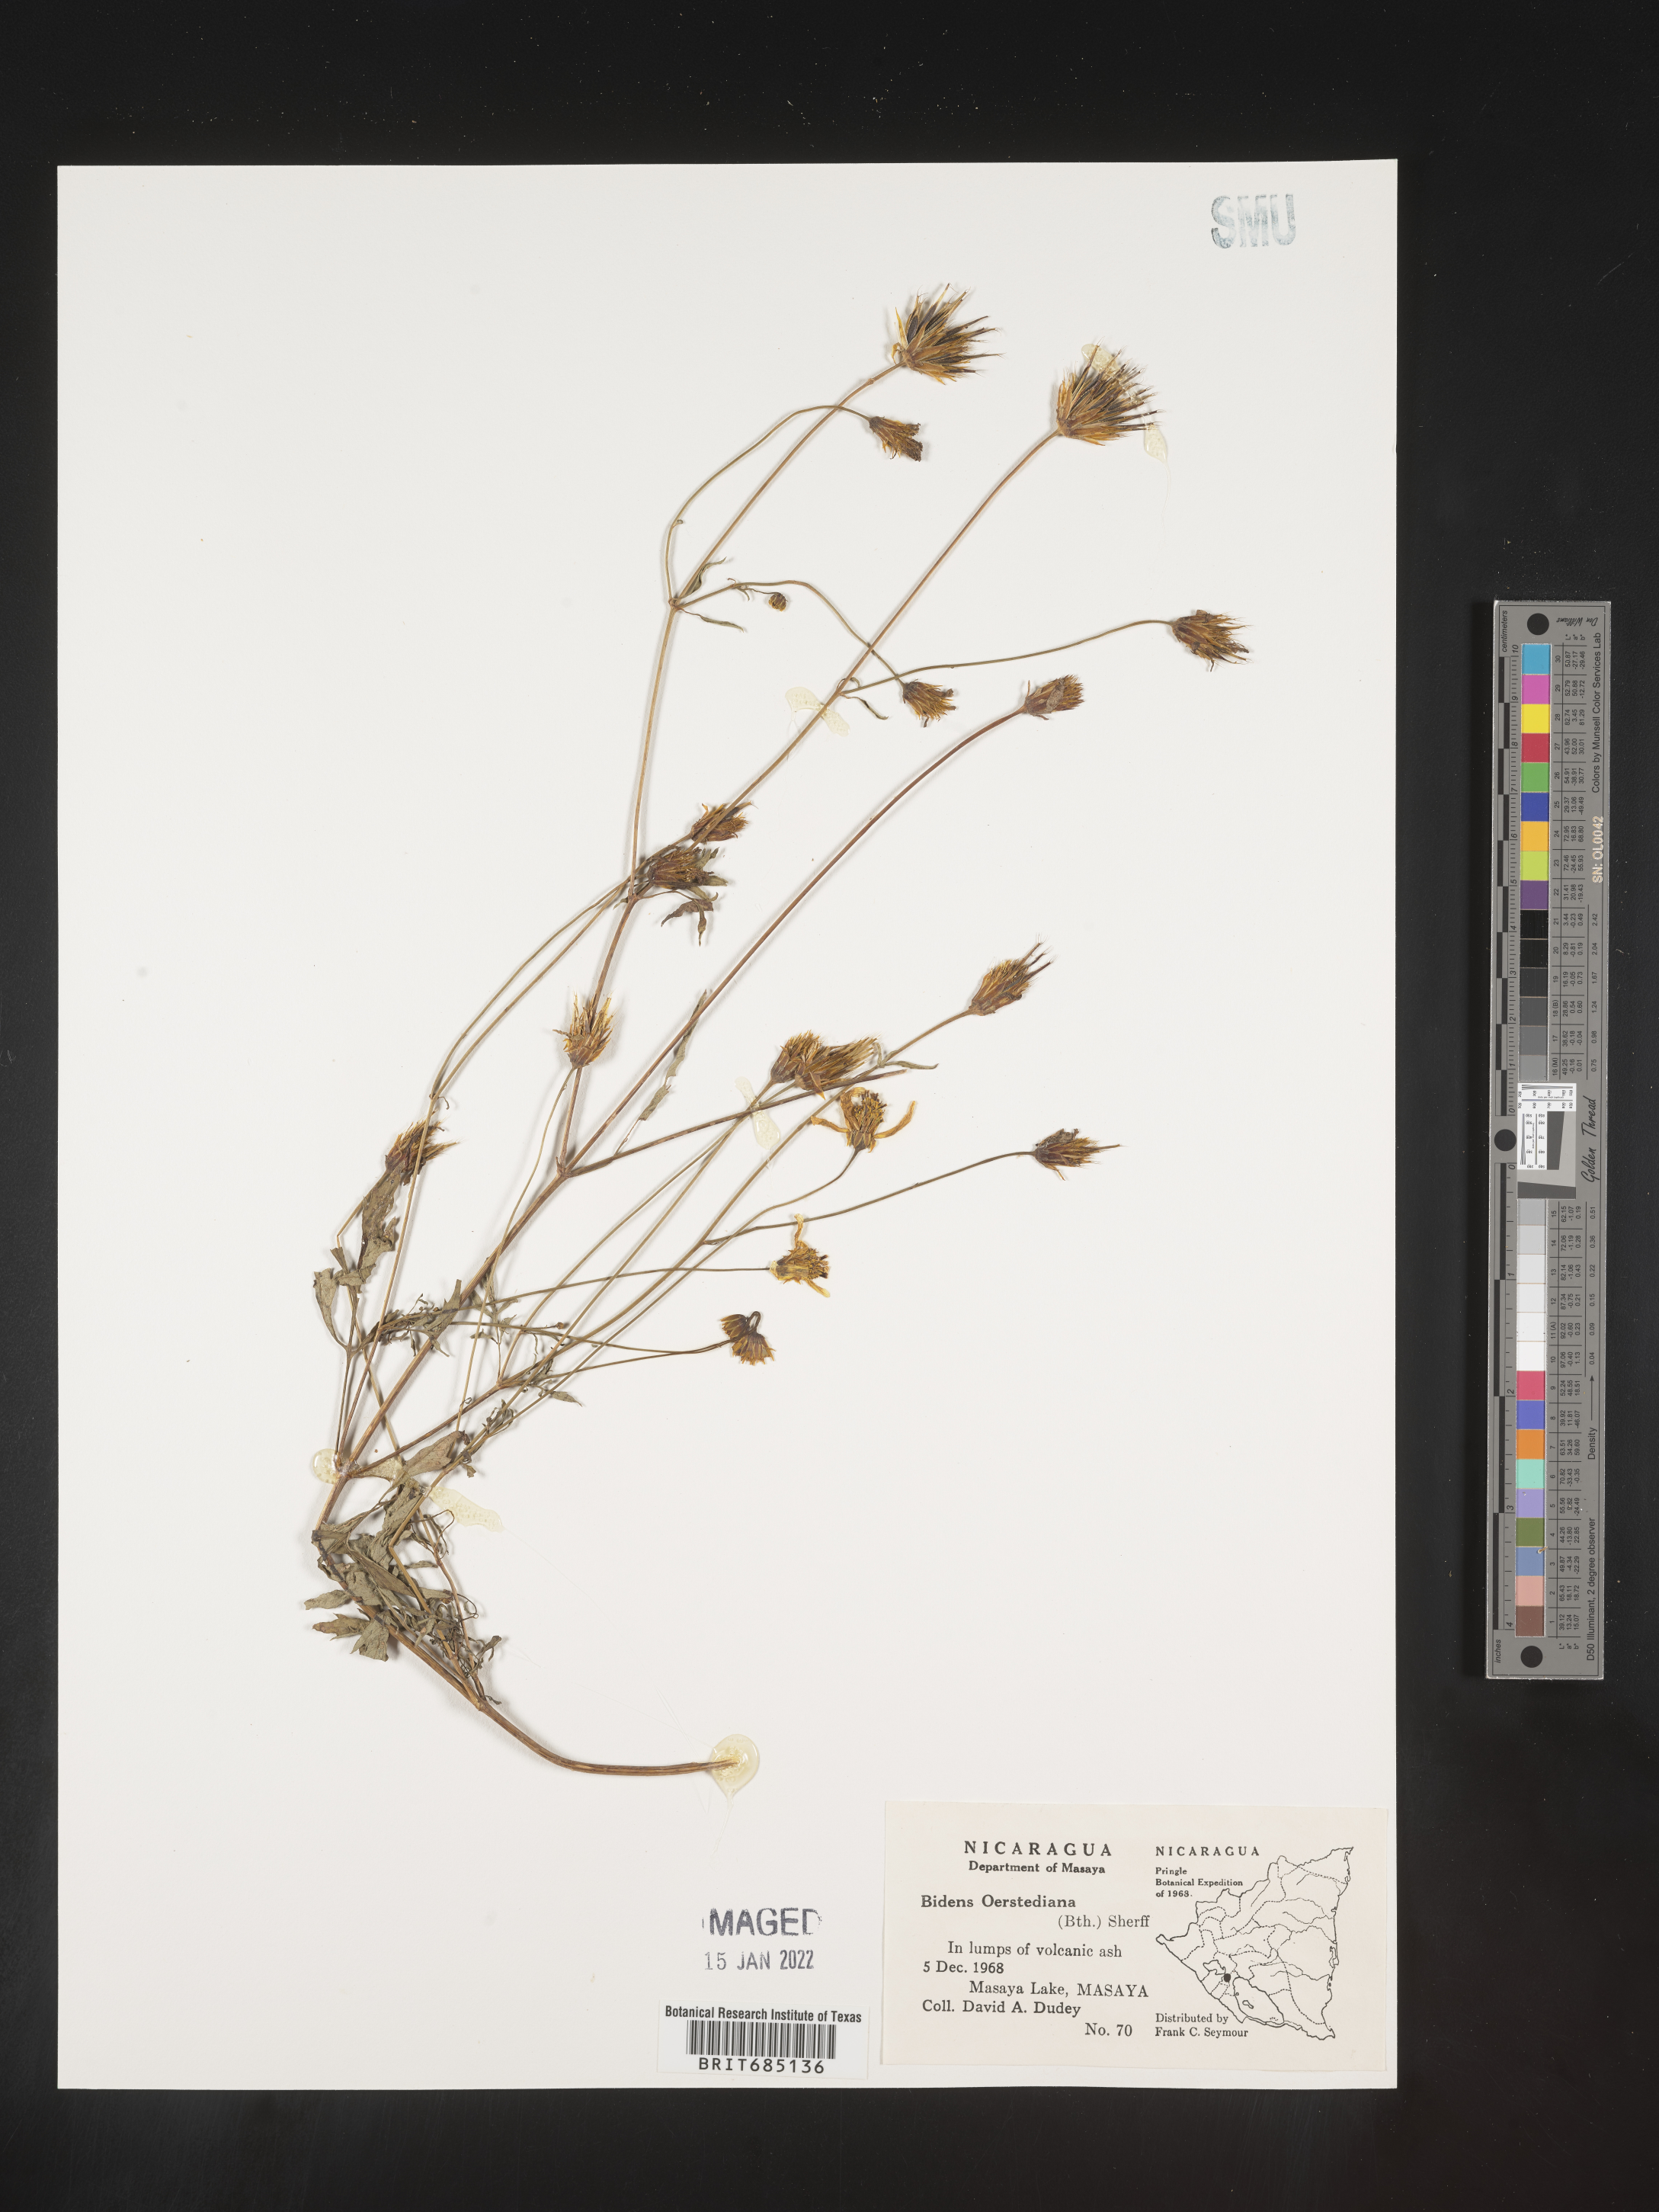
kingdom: Plantae
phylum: Tracheophyta
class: Magnoliopsida
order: Asterales
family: Asteraceae
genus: Bidens
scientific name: Bidens
